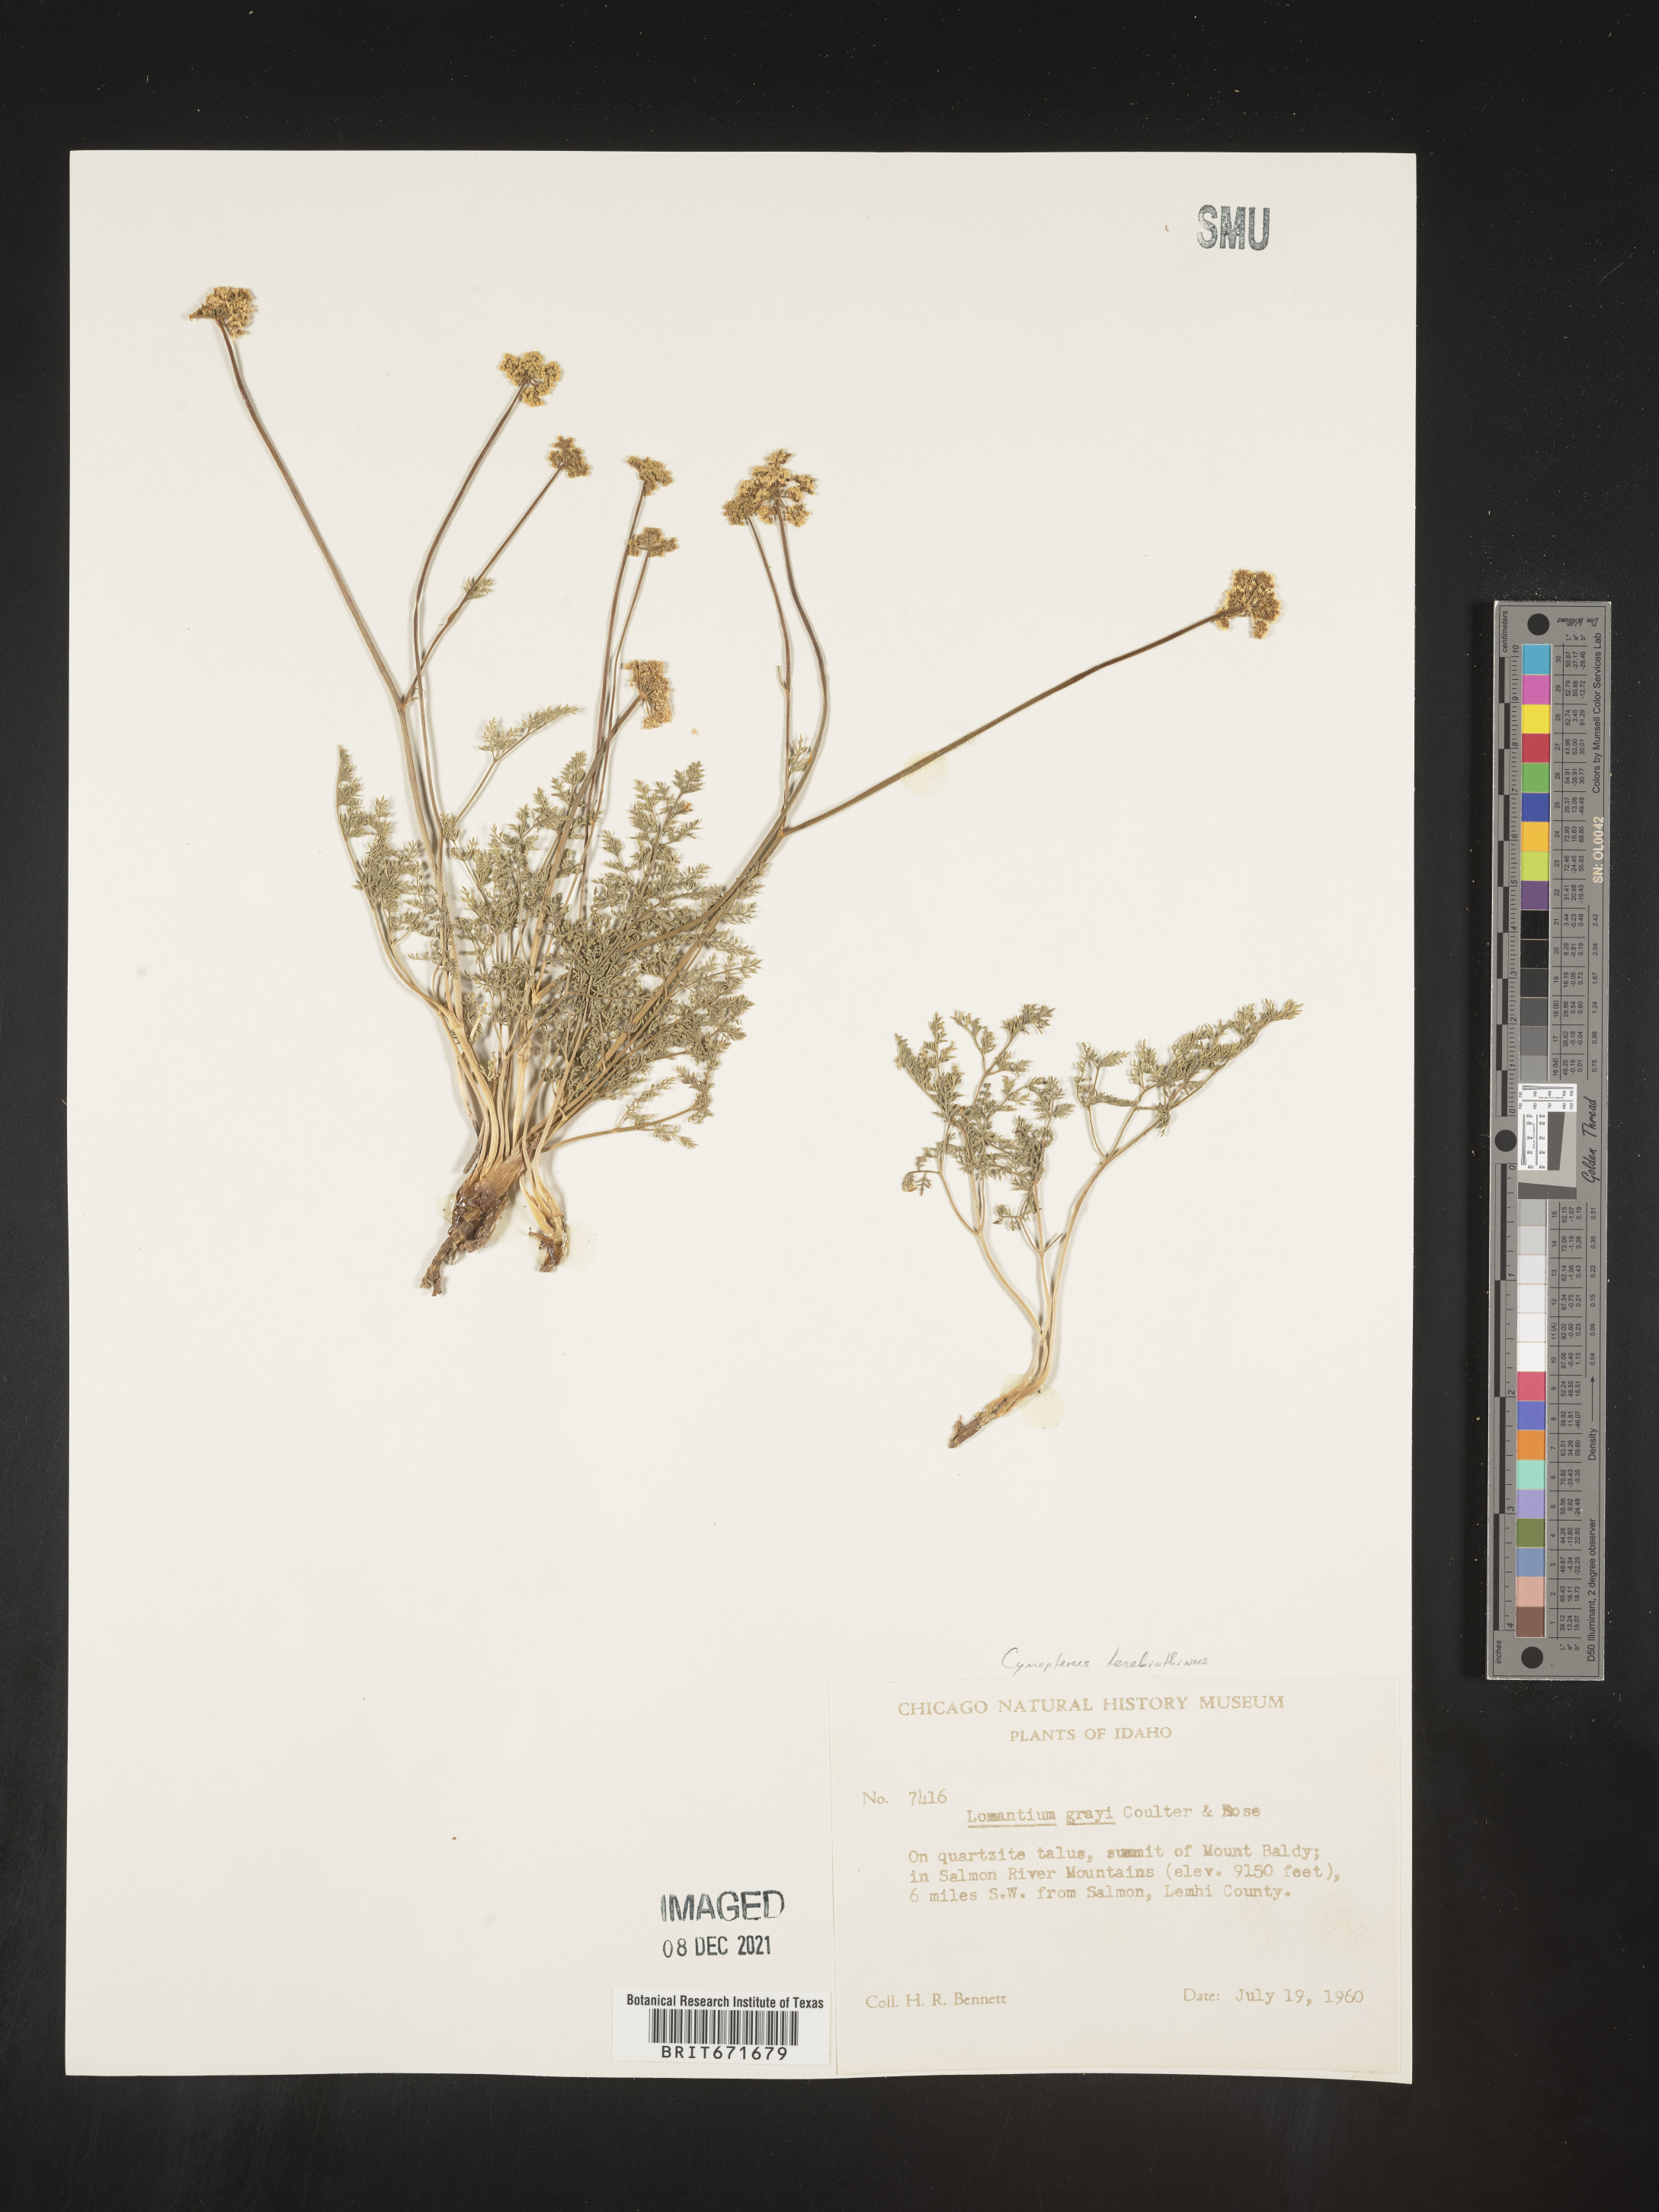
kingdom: Plantae
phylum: Tracheophyta
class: Magnoliopsida
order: Apiales
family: Apiaceae
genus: Pteryxia
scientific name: Pteryxia terebinthina
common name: Turpentine wavewing
